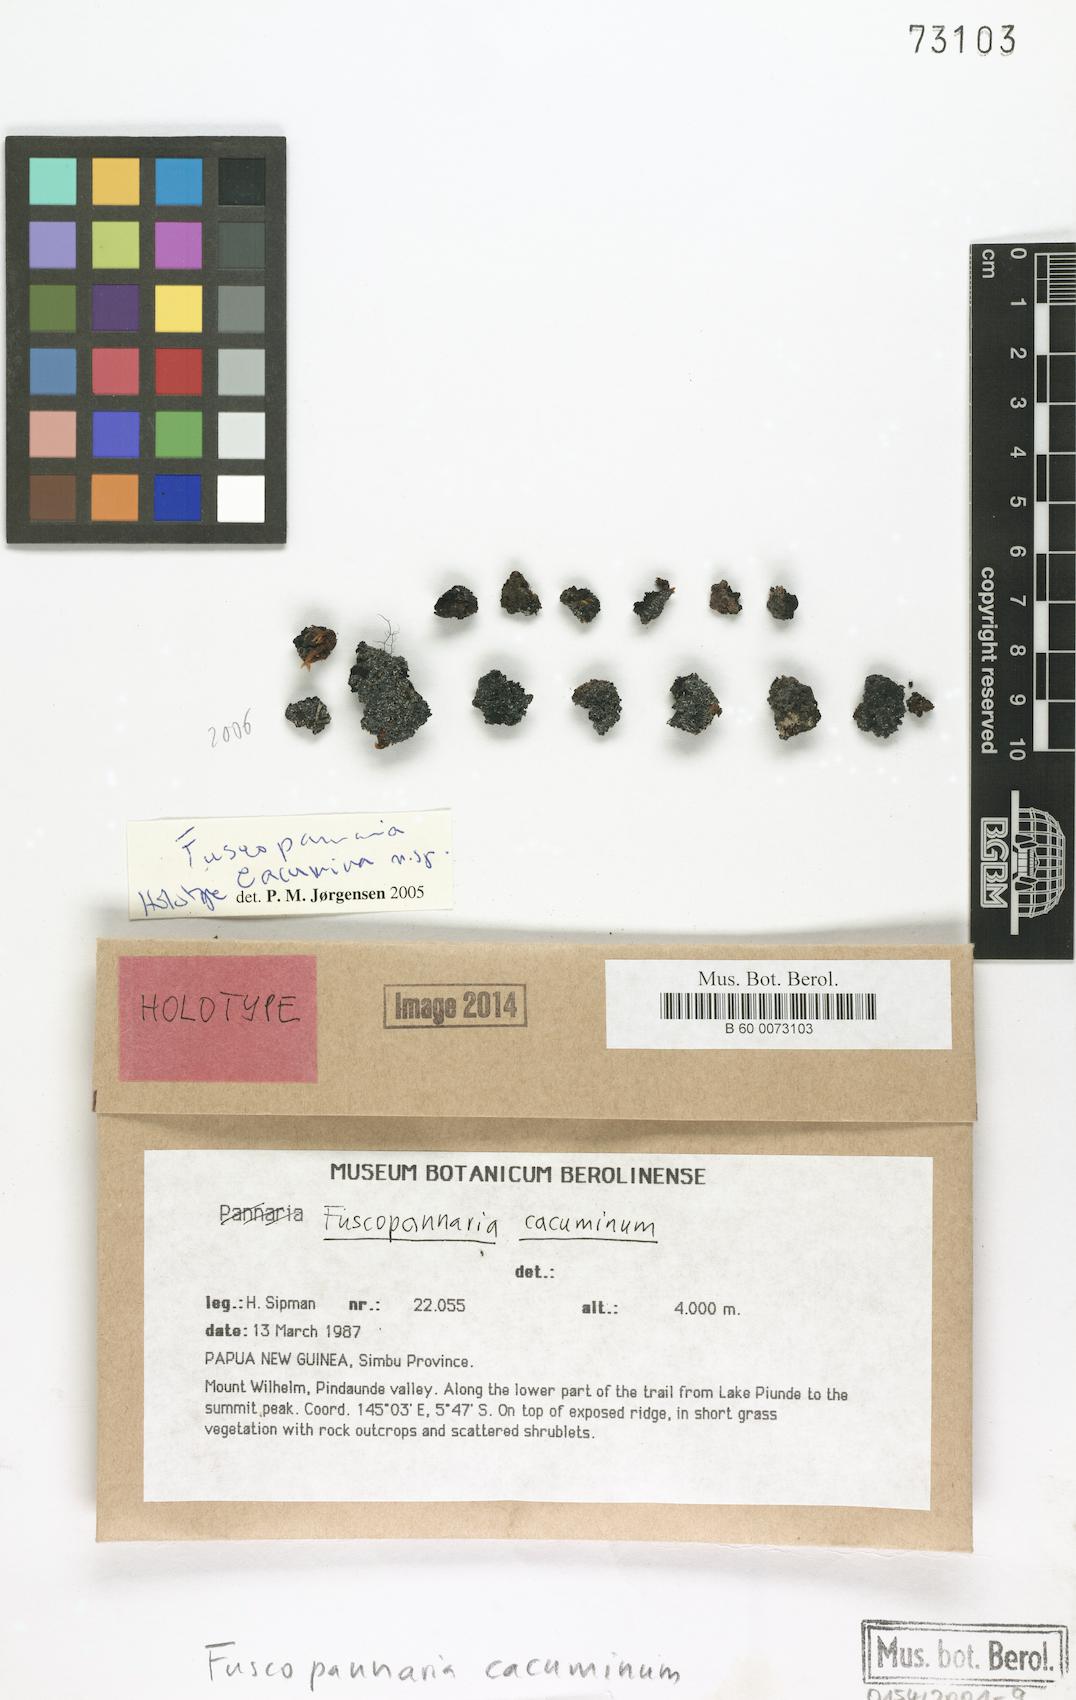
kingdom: Fungi
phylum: Ascomycota
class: Lecanoromycetes
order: Peltigerales
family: Pannariaceae
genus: Fuscopannaria
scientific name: Fuscopannaria cacuminum
